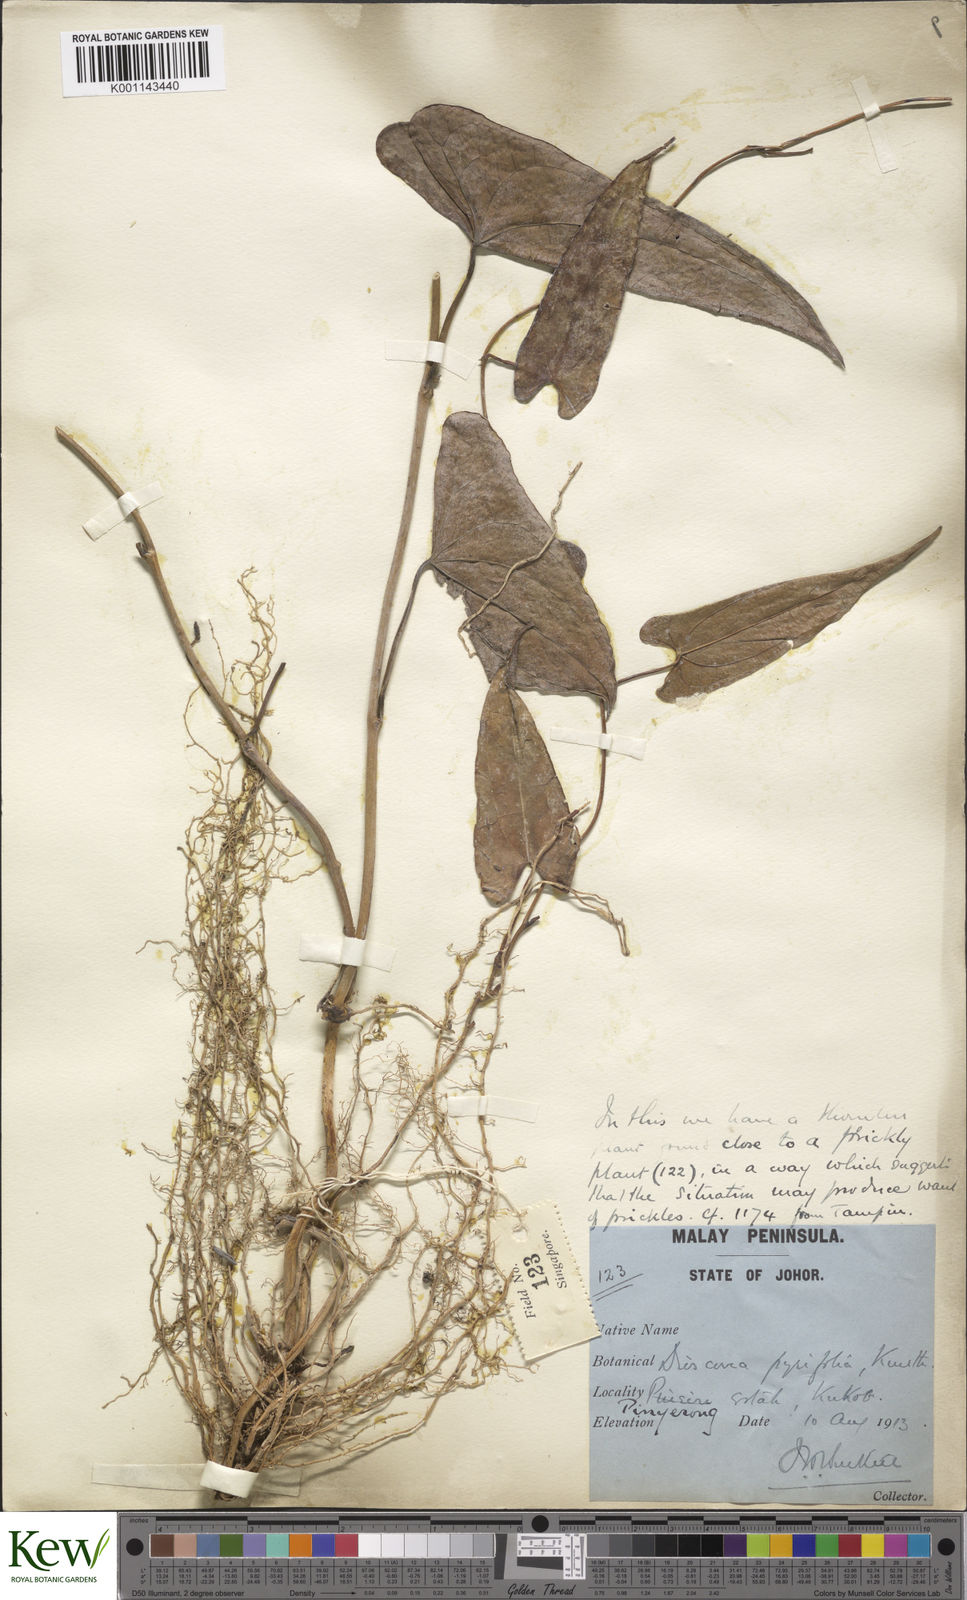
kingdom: Plantae
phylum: Tracheophyta
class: Liliopsida
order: Dioscoreales
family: Dioscoreaceae
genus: Dioscorea
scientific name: Dioscorea pyrifolia
